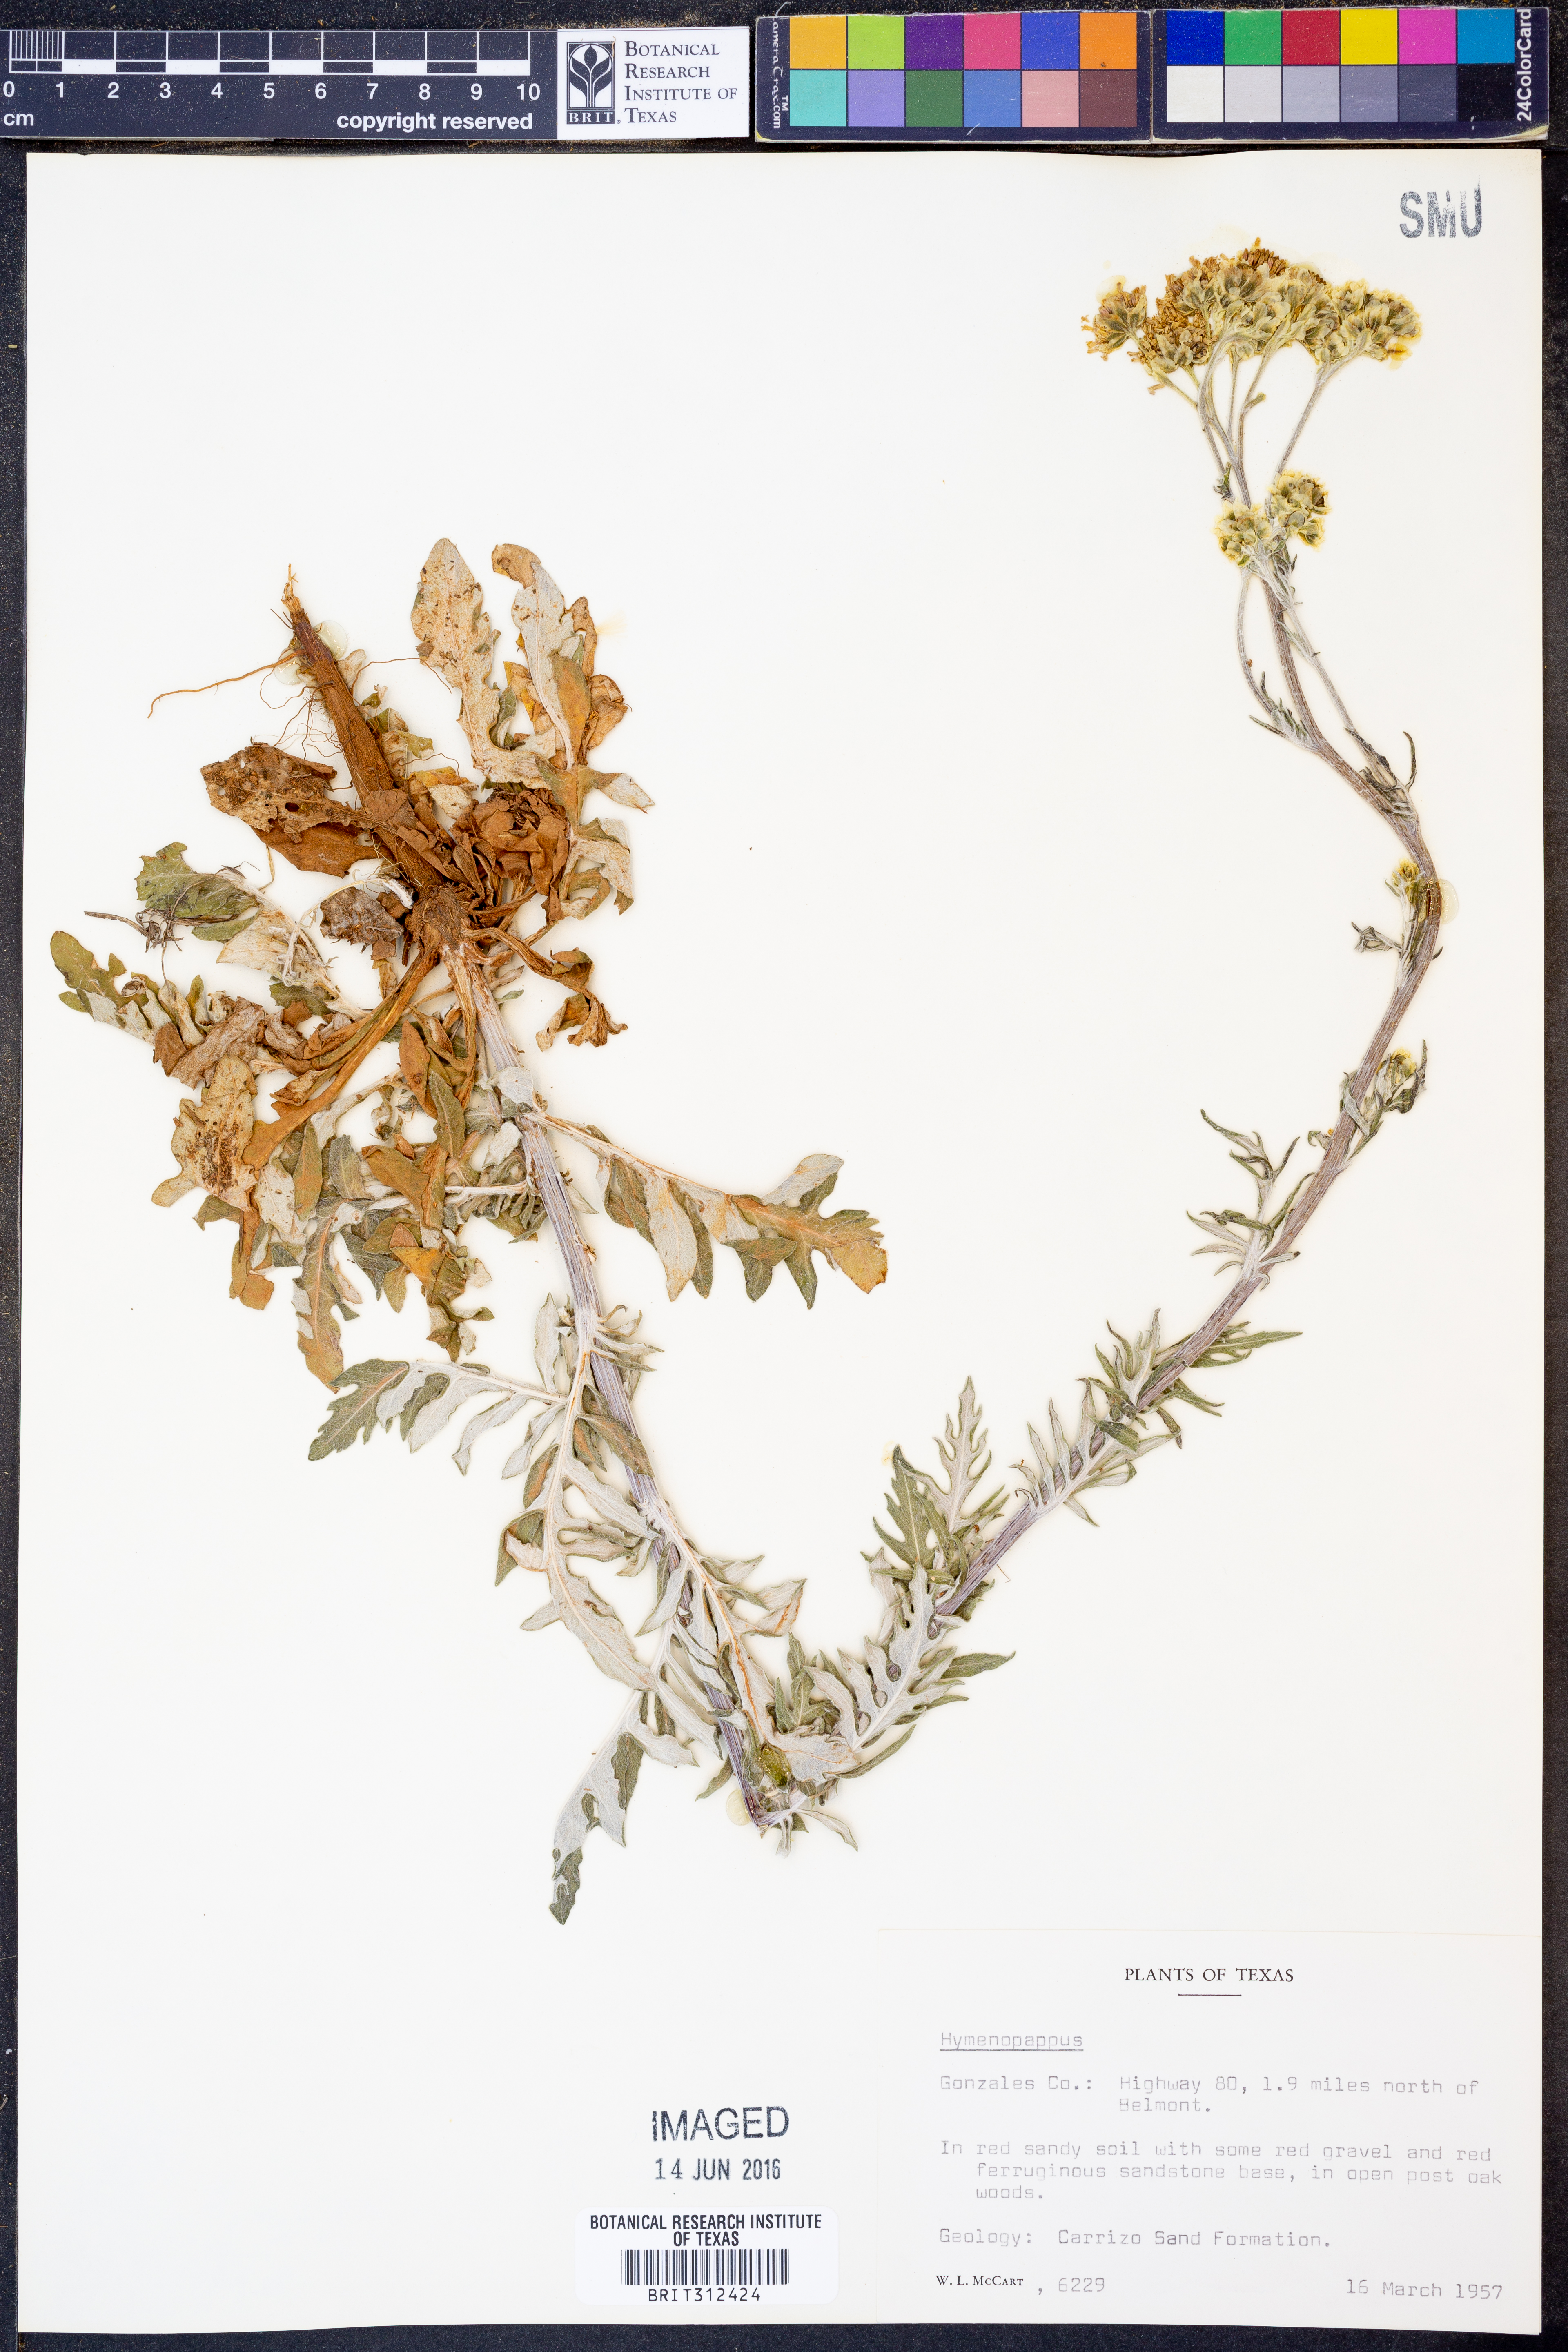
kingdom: Plantae
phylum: Tracheophyta
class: Magnoliopsida
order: Asterales
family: Asteraceae
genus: Hymenopappus
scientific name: Hymenopappus
